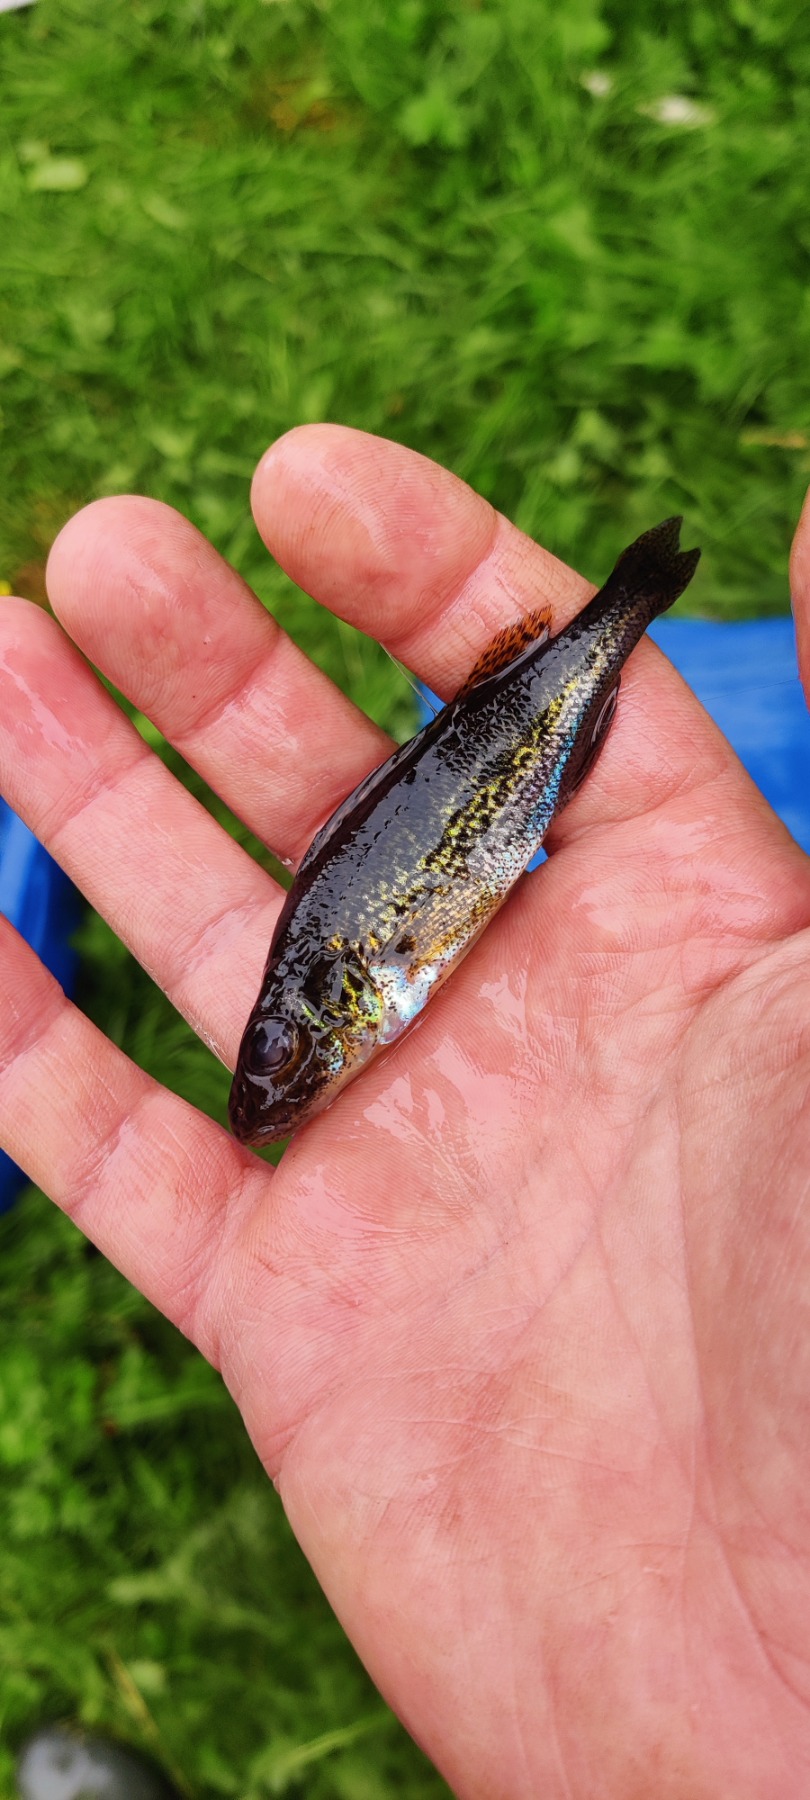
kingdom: Animalia
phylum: Chordata
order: Perciformes
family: Percidae
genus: Gymnocephalus
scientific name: Gymnocephalus cernua
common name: Hork
